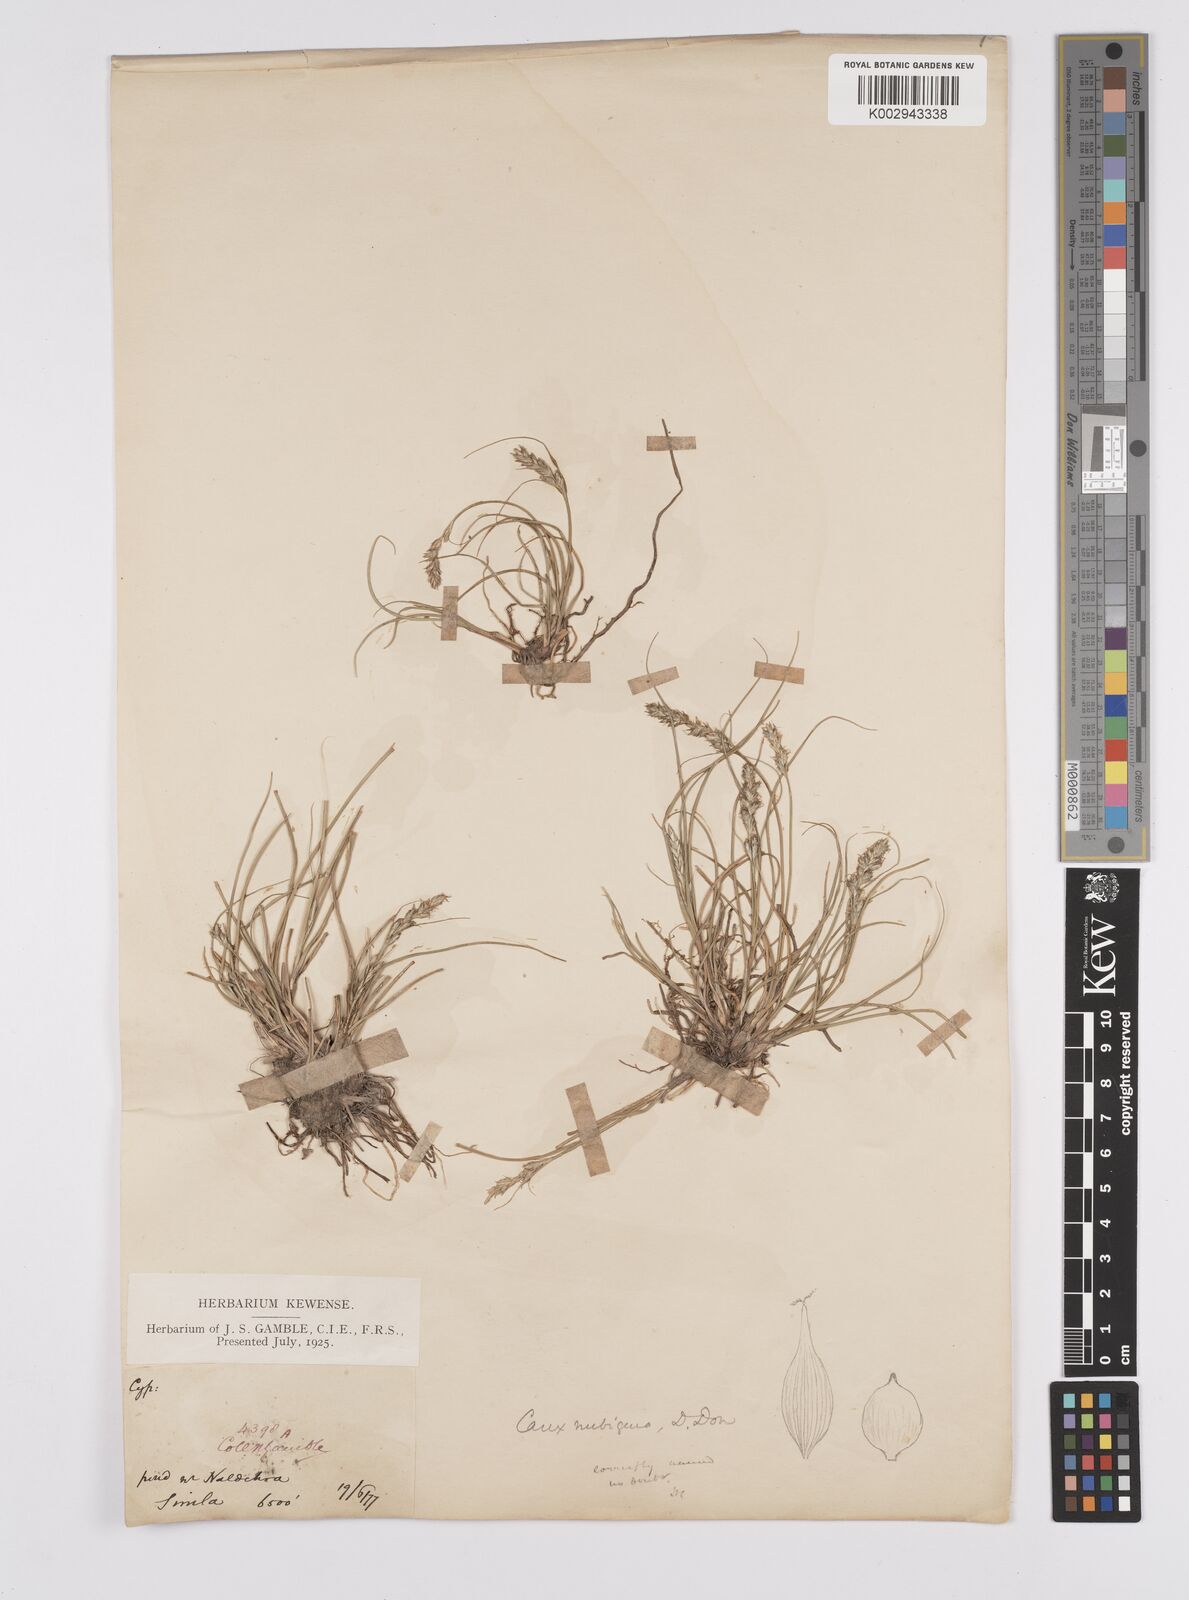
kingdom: Plantae
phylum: Tracheophyta
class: Liliopsida
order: Poales
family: Cyperaceae
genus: Carex
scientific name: Carex nubigena
